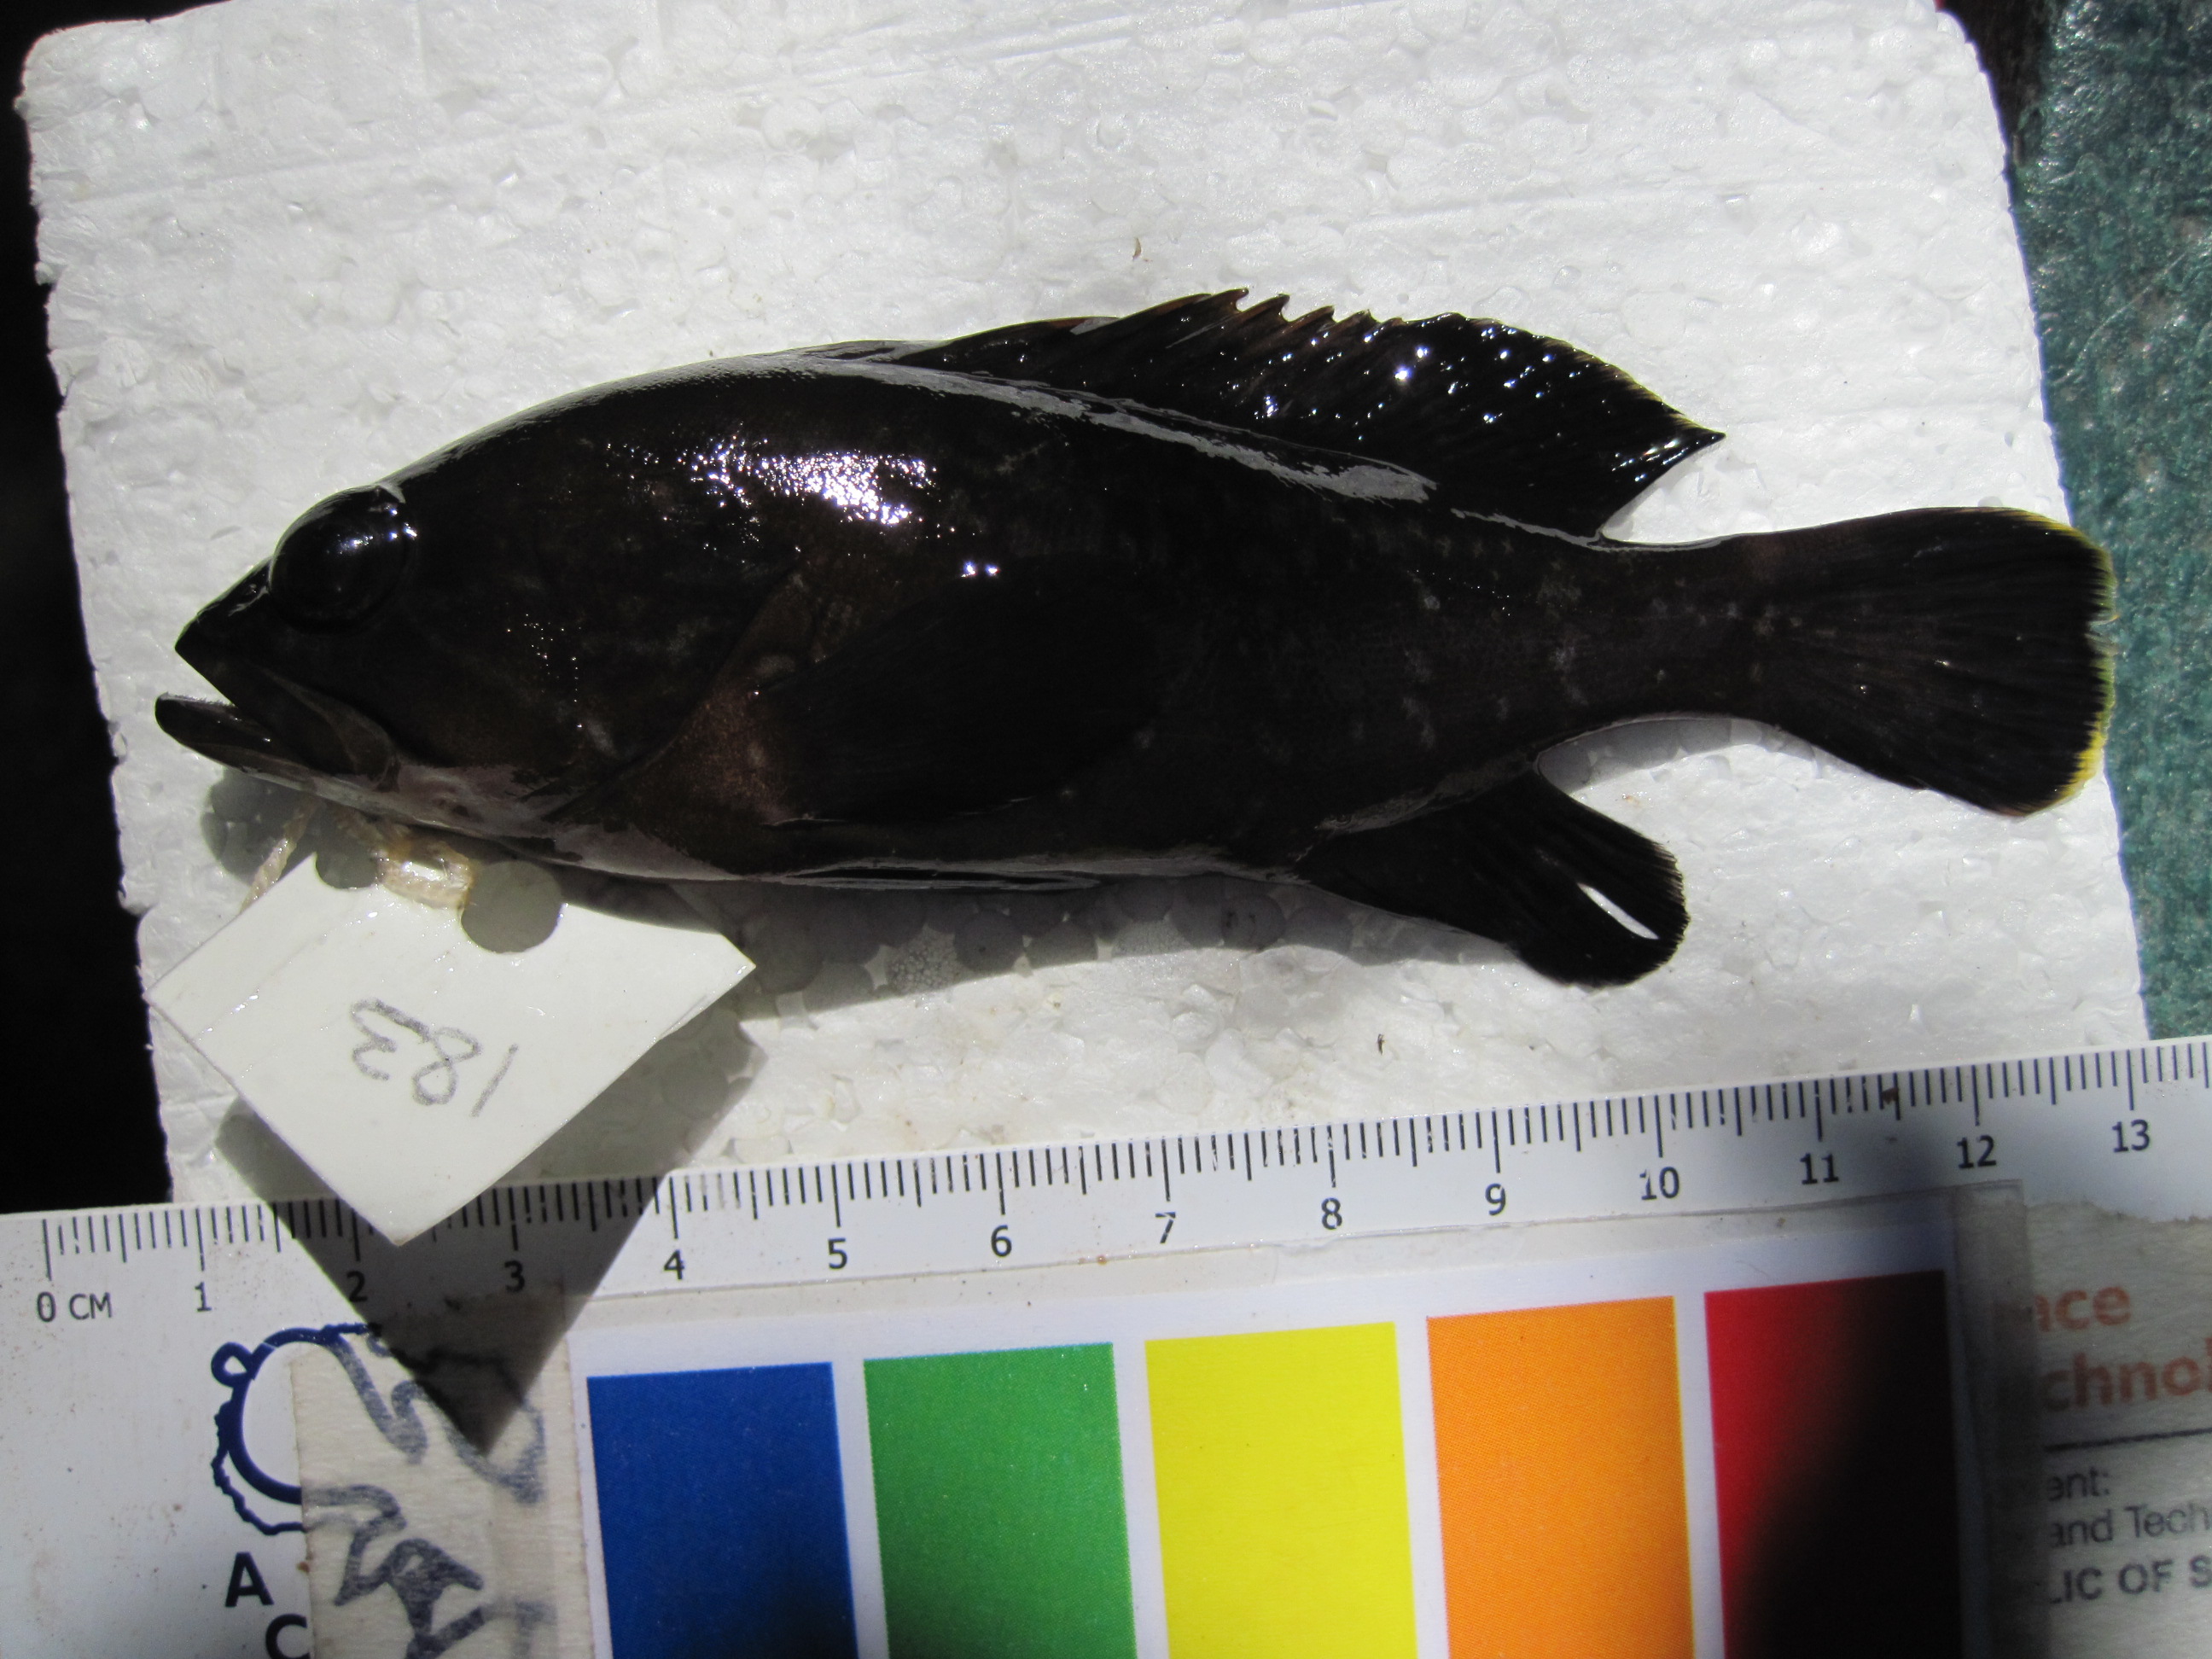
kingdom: Animalia
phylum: Chordata
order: Perciformes
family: Serranidae
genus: Epinephelus
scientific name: Epinephelus marginatus
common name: Dusky grouper
